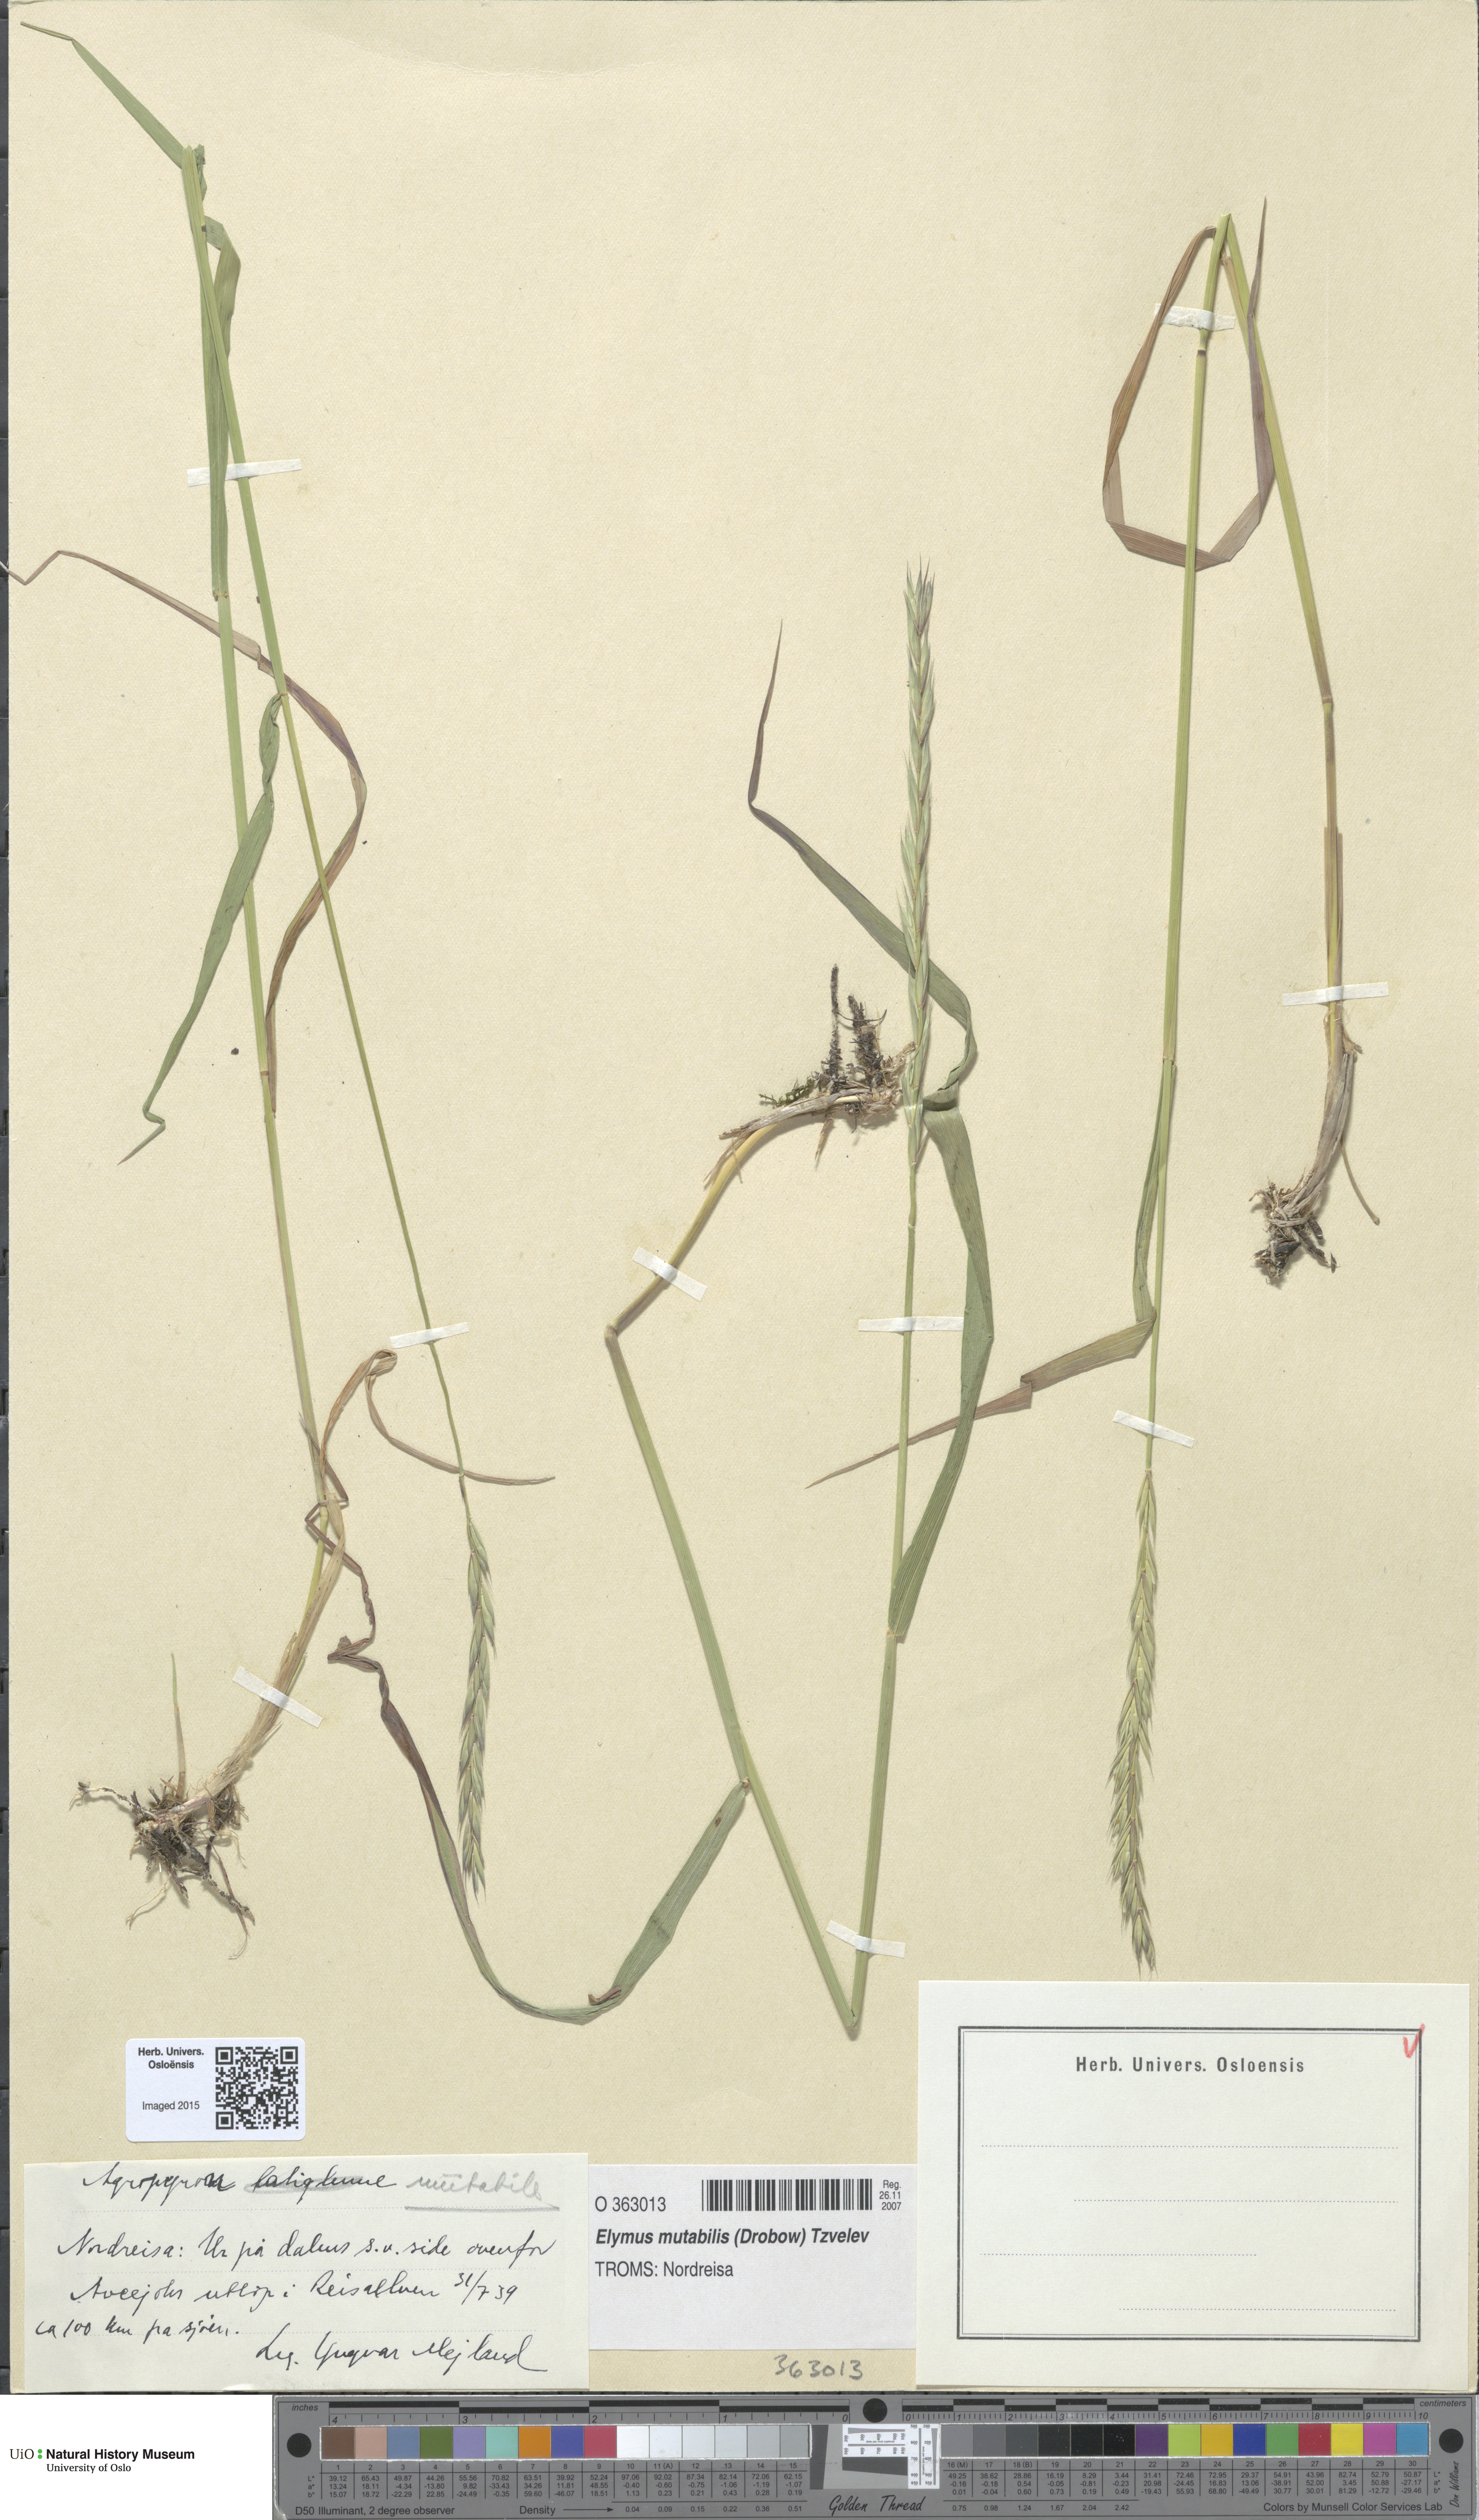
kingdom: Plantae
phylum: Tracheophyta
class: Liliopsida
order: Poales
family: Poaceae
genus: Elymus
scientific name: Elymus mutabilis
